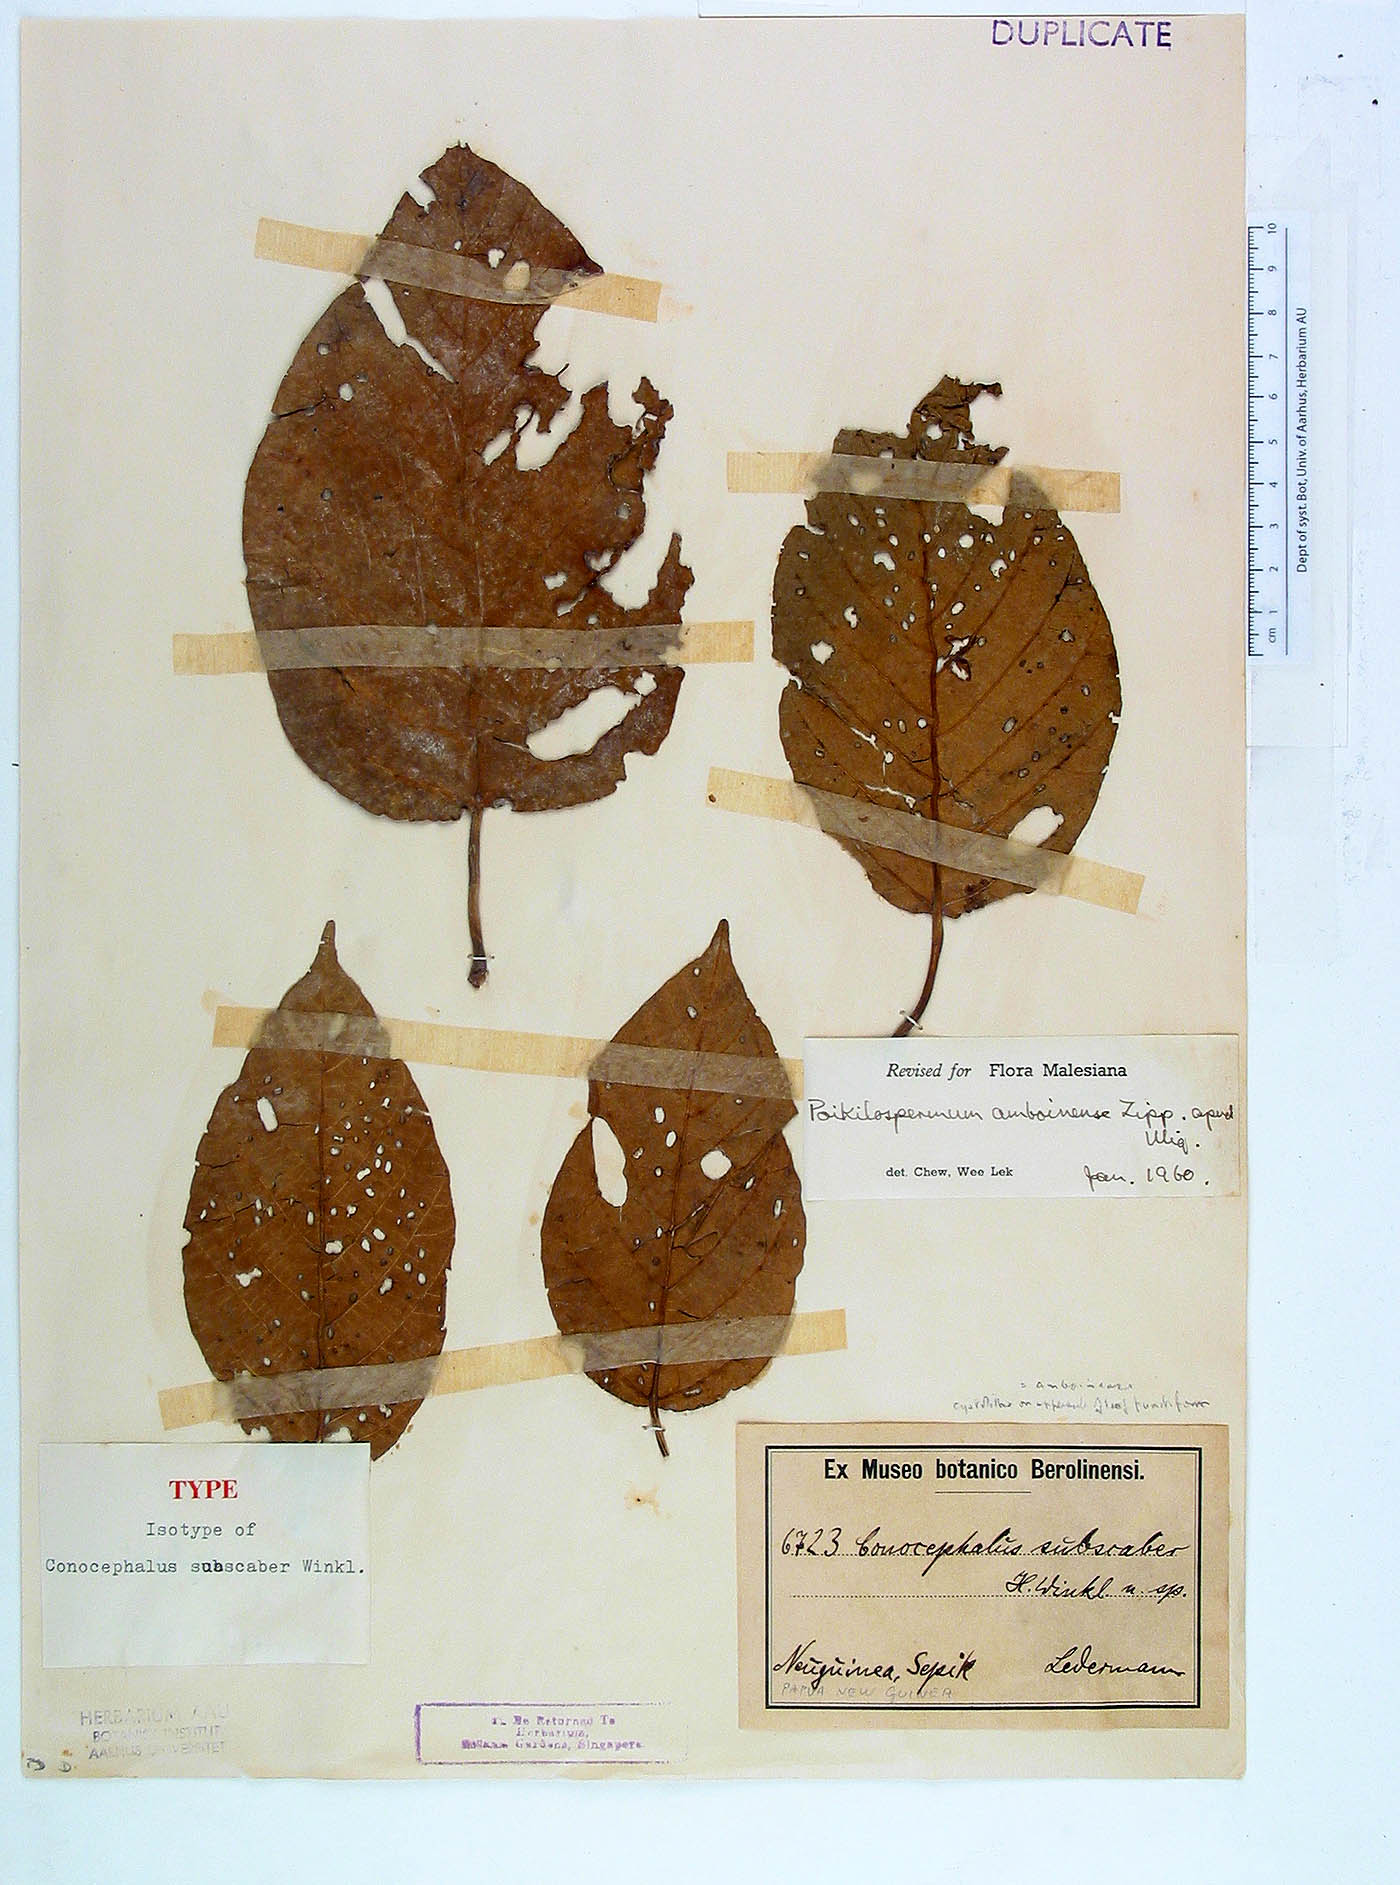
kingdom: Plantae
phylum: Tracheophyta
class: Magnoliopsida
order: Rosales
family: Urticaceae
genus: Poikilospermum
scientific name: Poikilospermum amboinense
